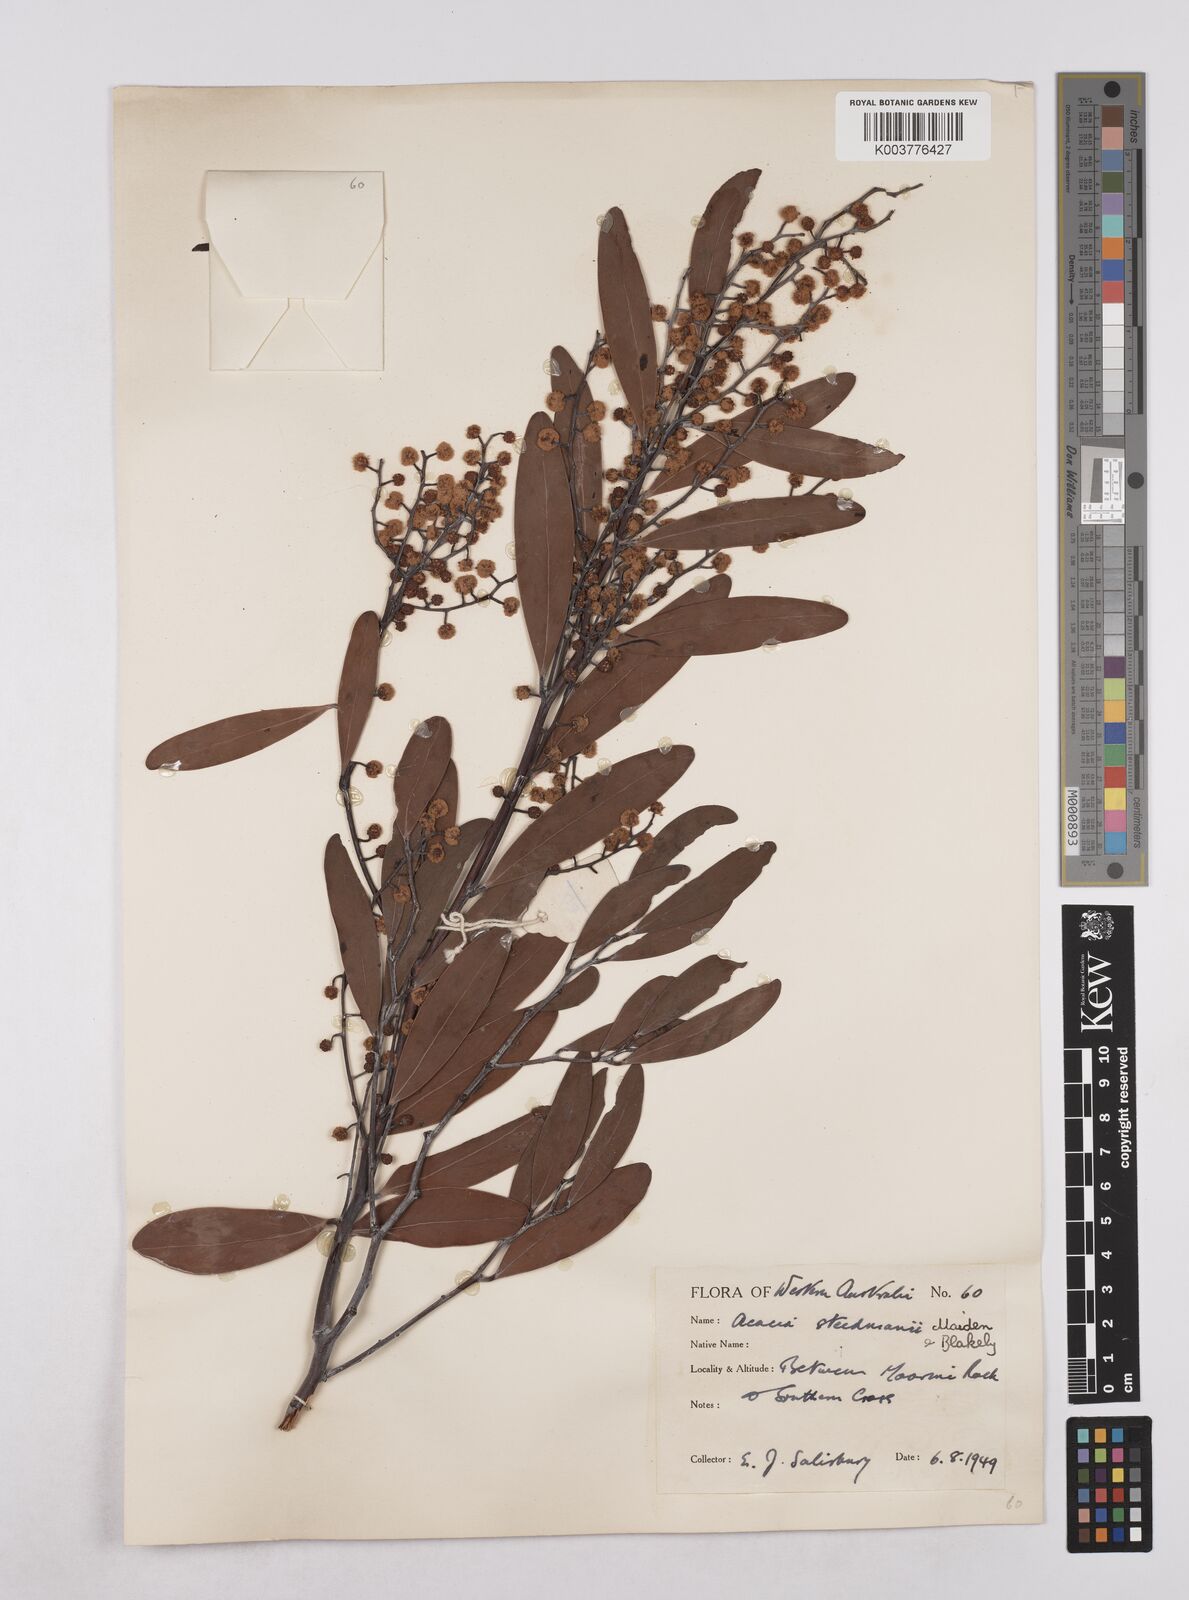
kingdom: Plantae
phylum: Tracheophyta
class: Magnoliopsida
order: Fabales
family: Fabaceae
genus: Acacia
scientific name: Acacia steedmanii
